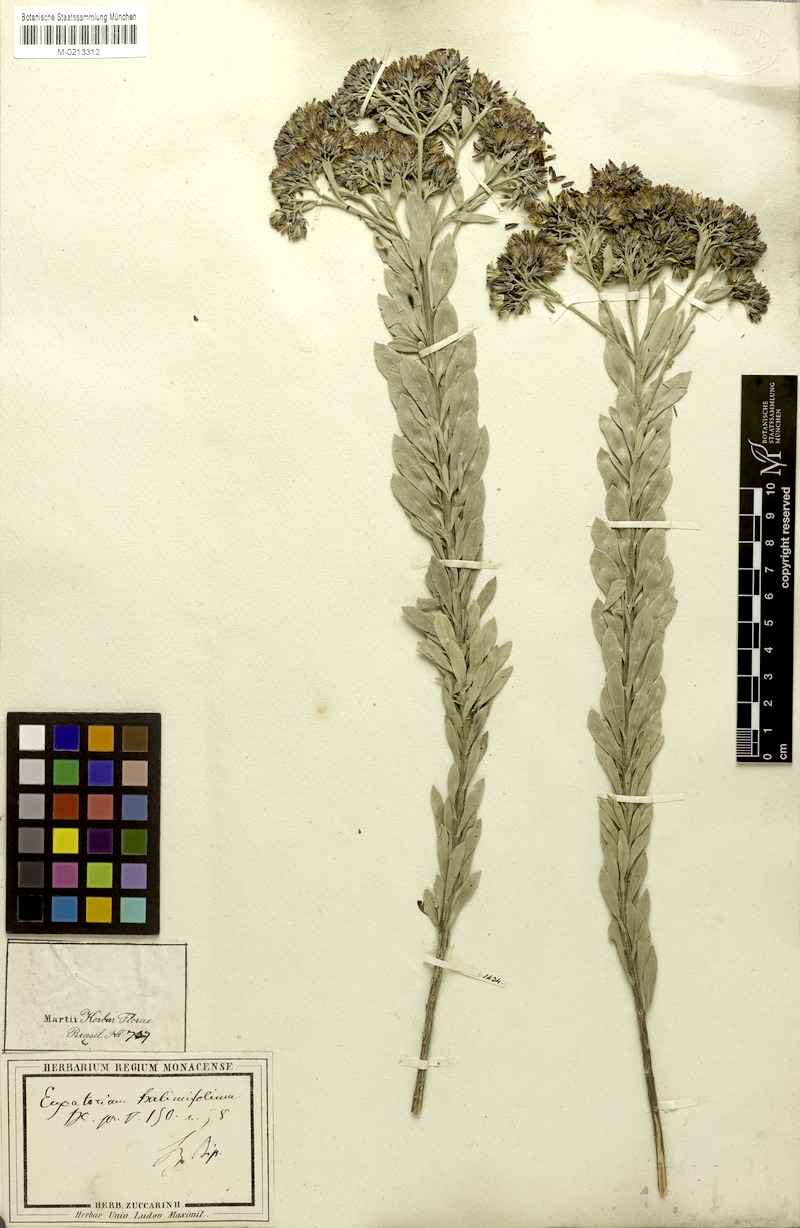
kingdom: Plantae
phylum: Tracheophyta
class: Magnoliopsida
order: Asterales
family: Asteraceae
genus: Disynaphia
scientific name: Disynaphia spathulata
